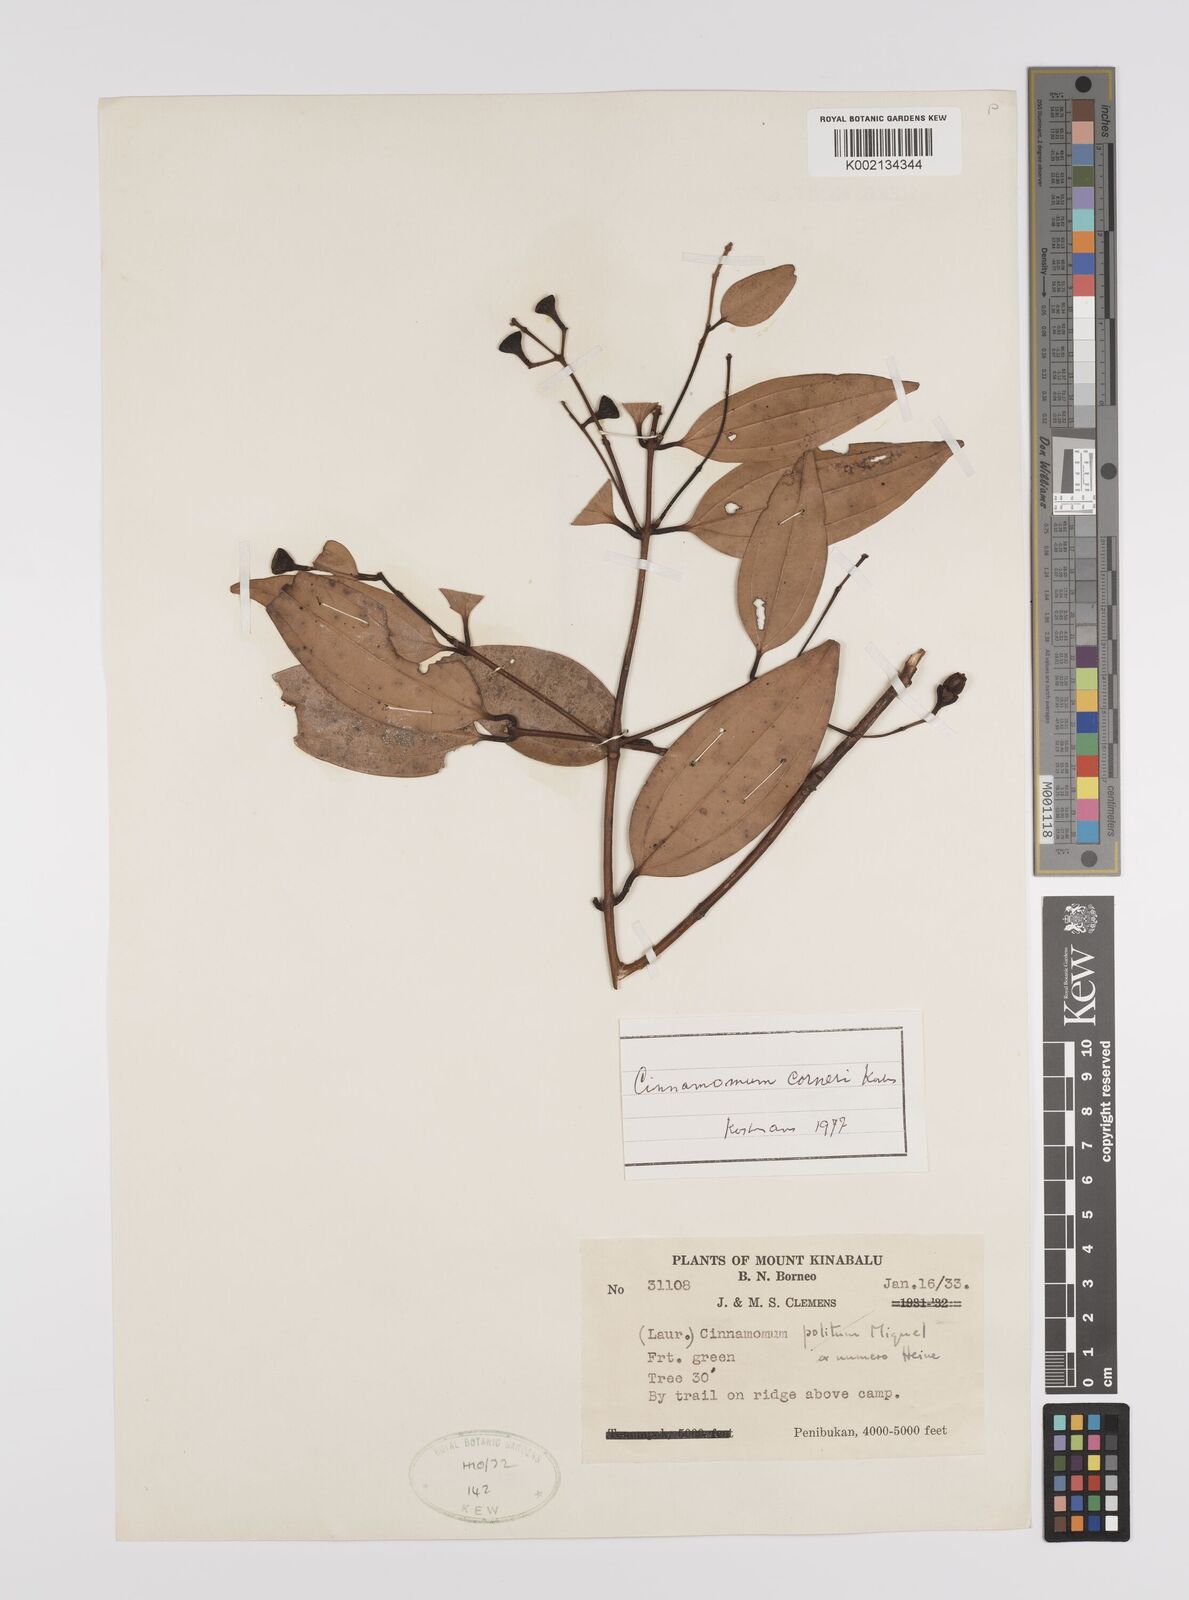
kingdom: Plantae
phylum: Tracheophyta
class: Magnoliopsida
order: Laurales
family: Lauraceae
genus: Cinnamomum
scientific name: Cinnamomum corneri
